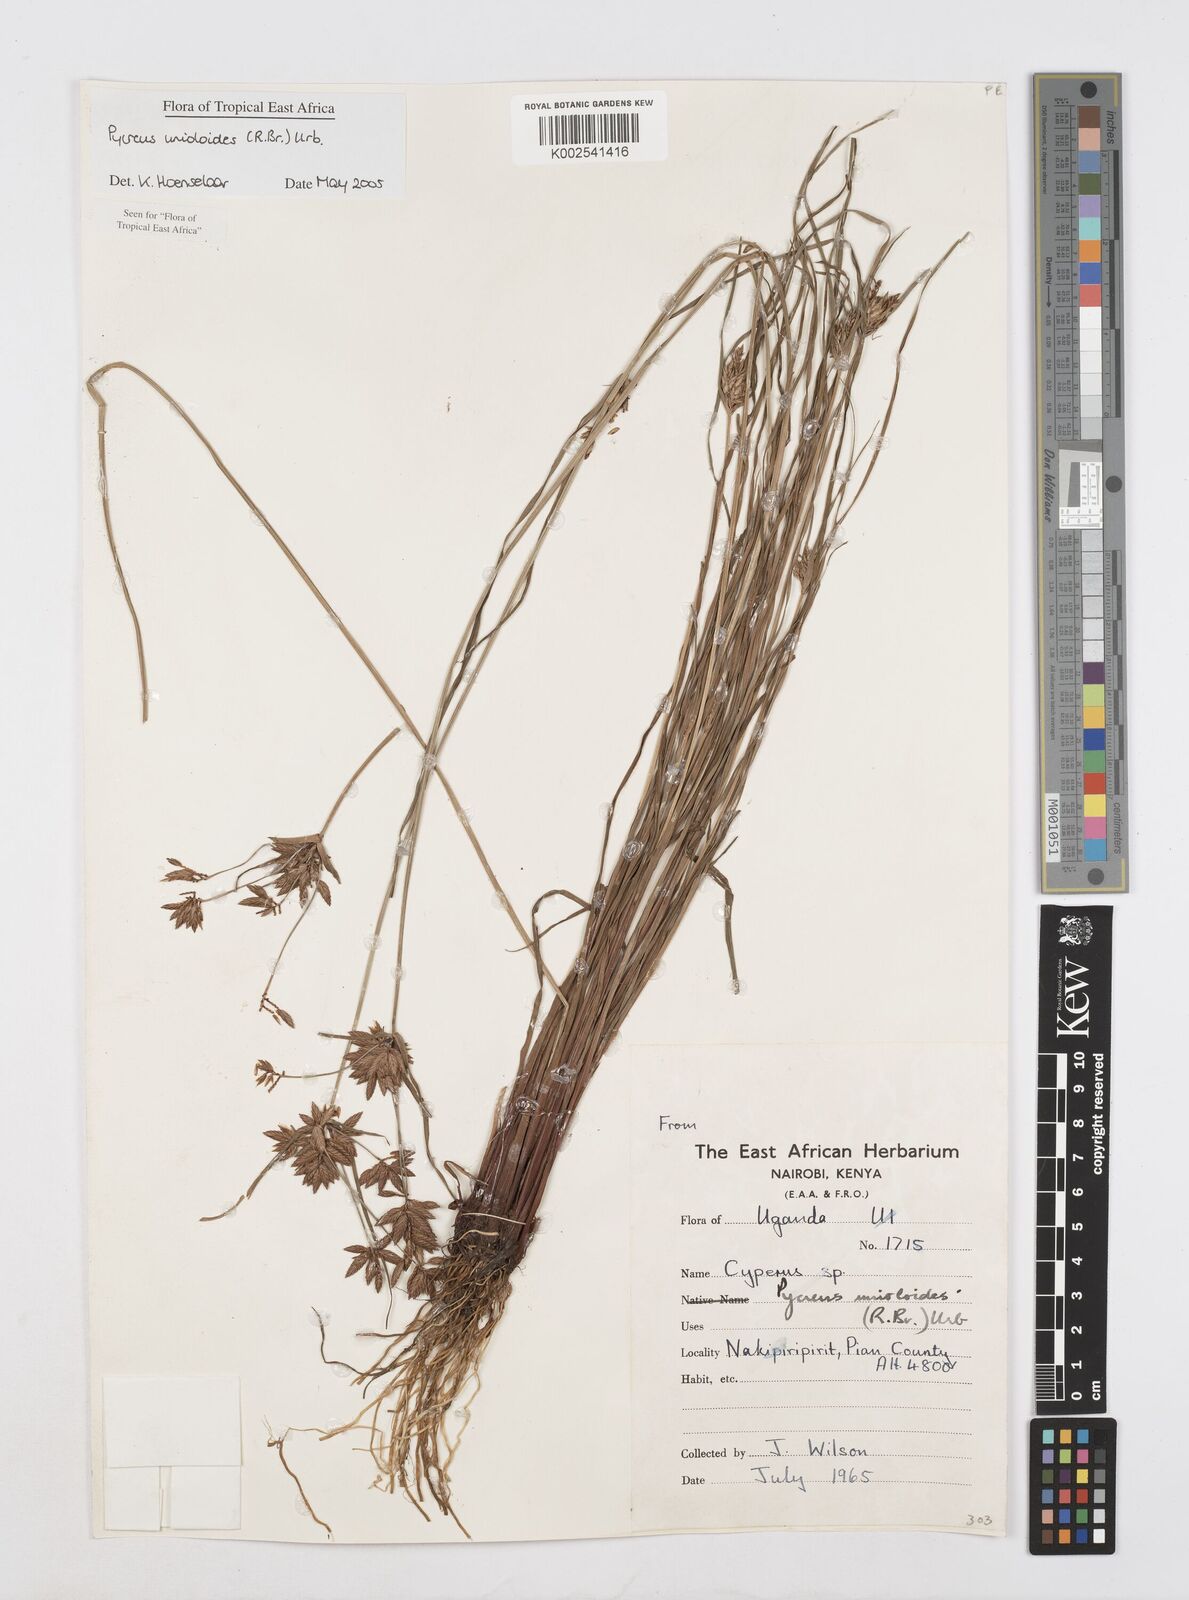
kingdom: Plantae
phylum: Tracheophyta
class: Liliopsida
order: Poales
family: Cyperaceae
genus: Cyperus
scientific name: Cyperus unioloides
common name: Uniola flatsedge
